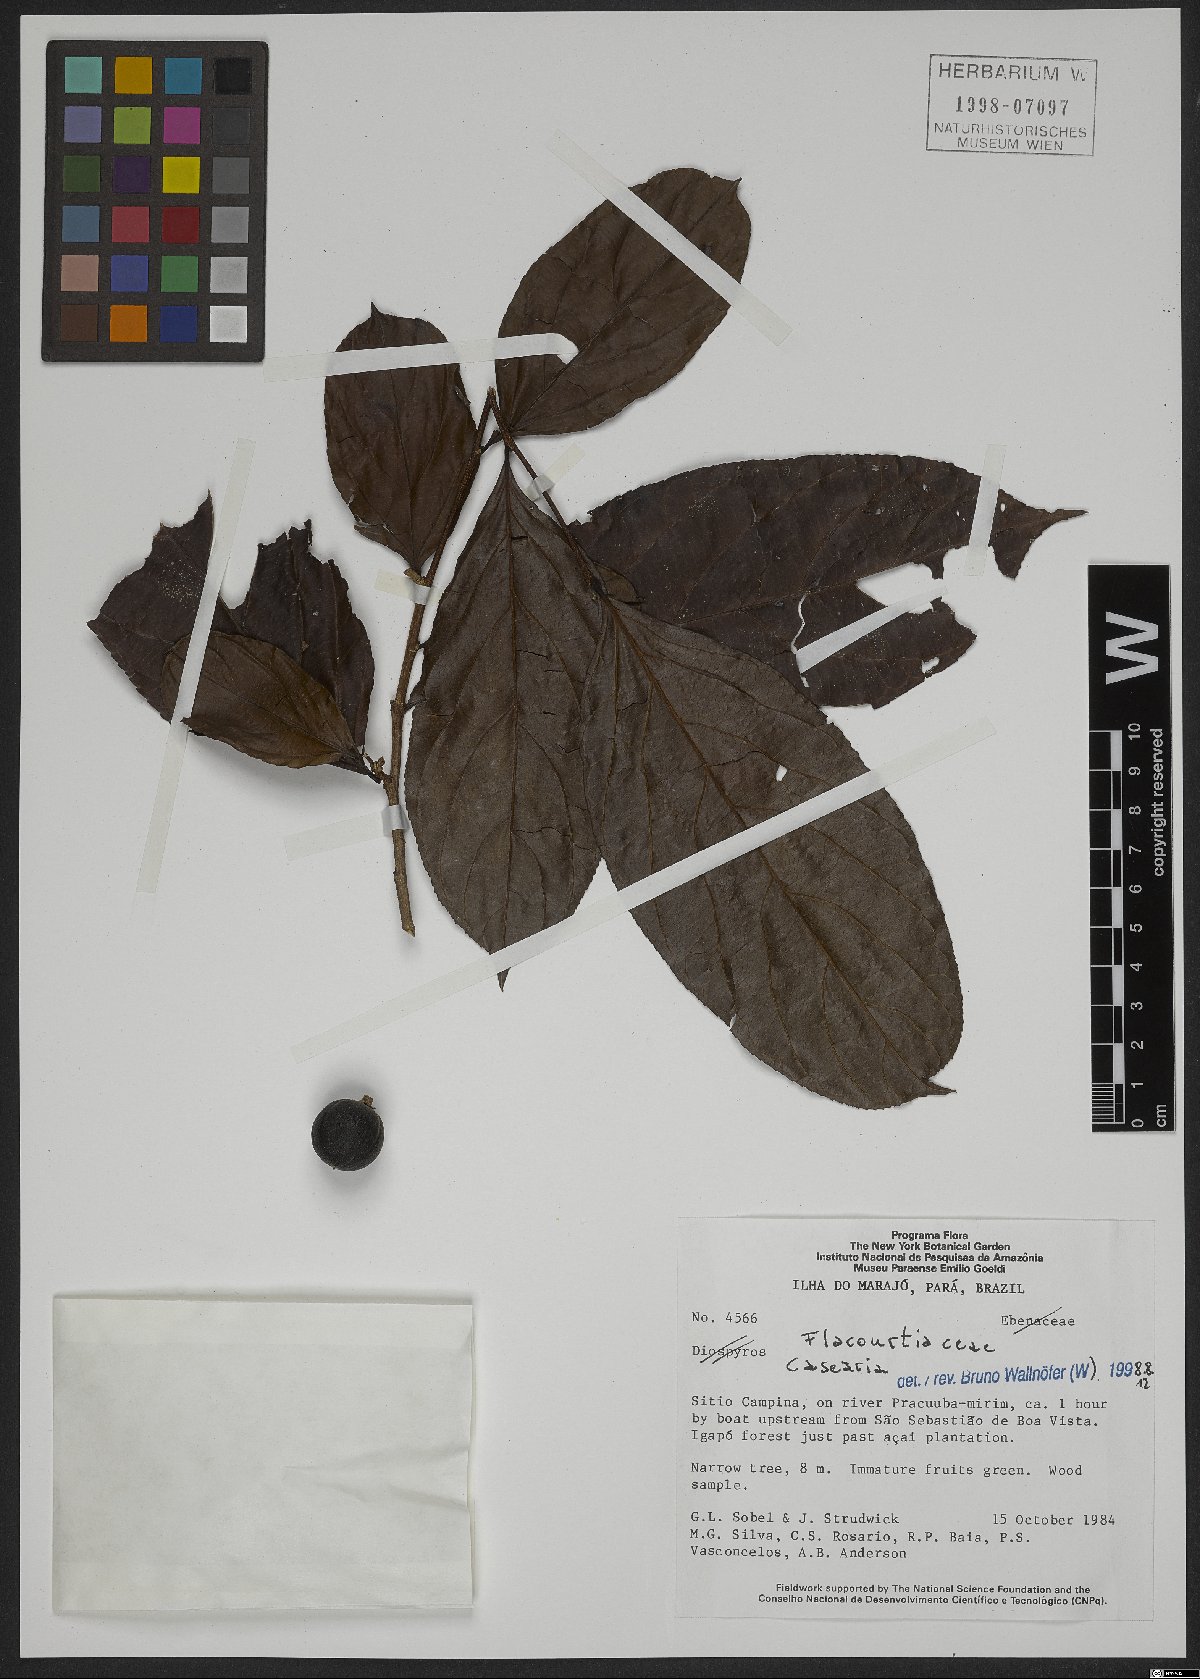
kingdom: Plantae
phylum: Tracheophyta
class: Magnoliopsida
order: Malpighiales
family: Salicaceae
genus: Casearia
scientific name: Casearia
